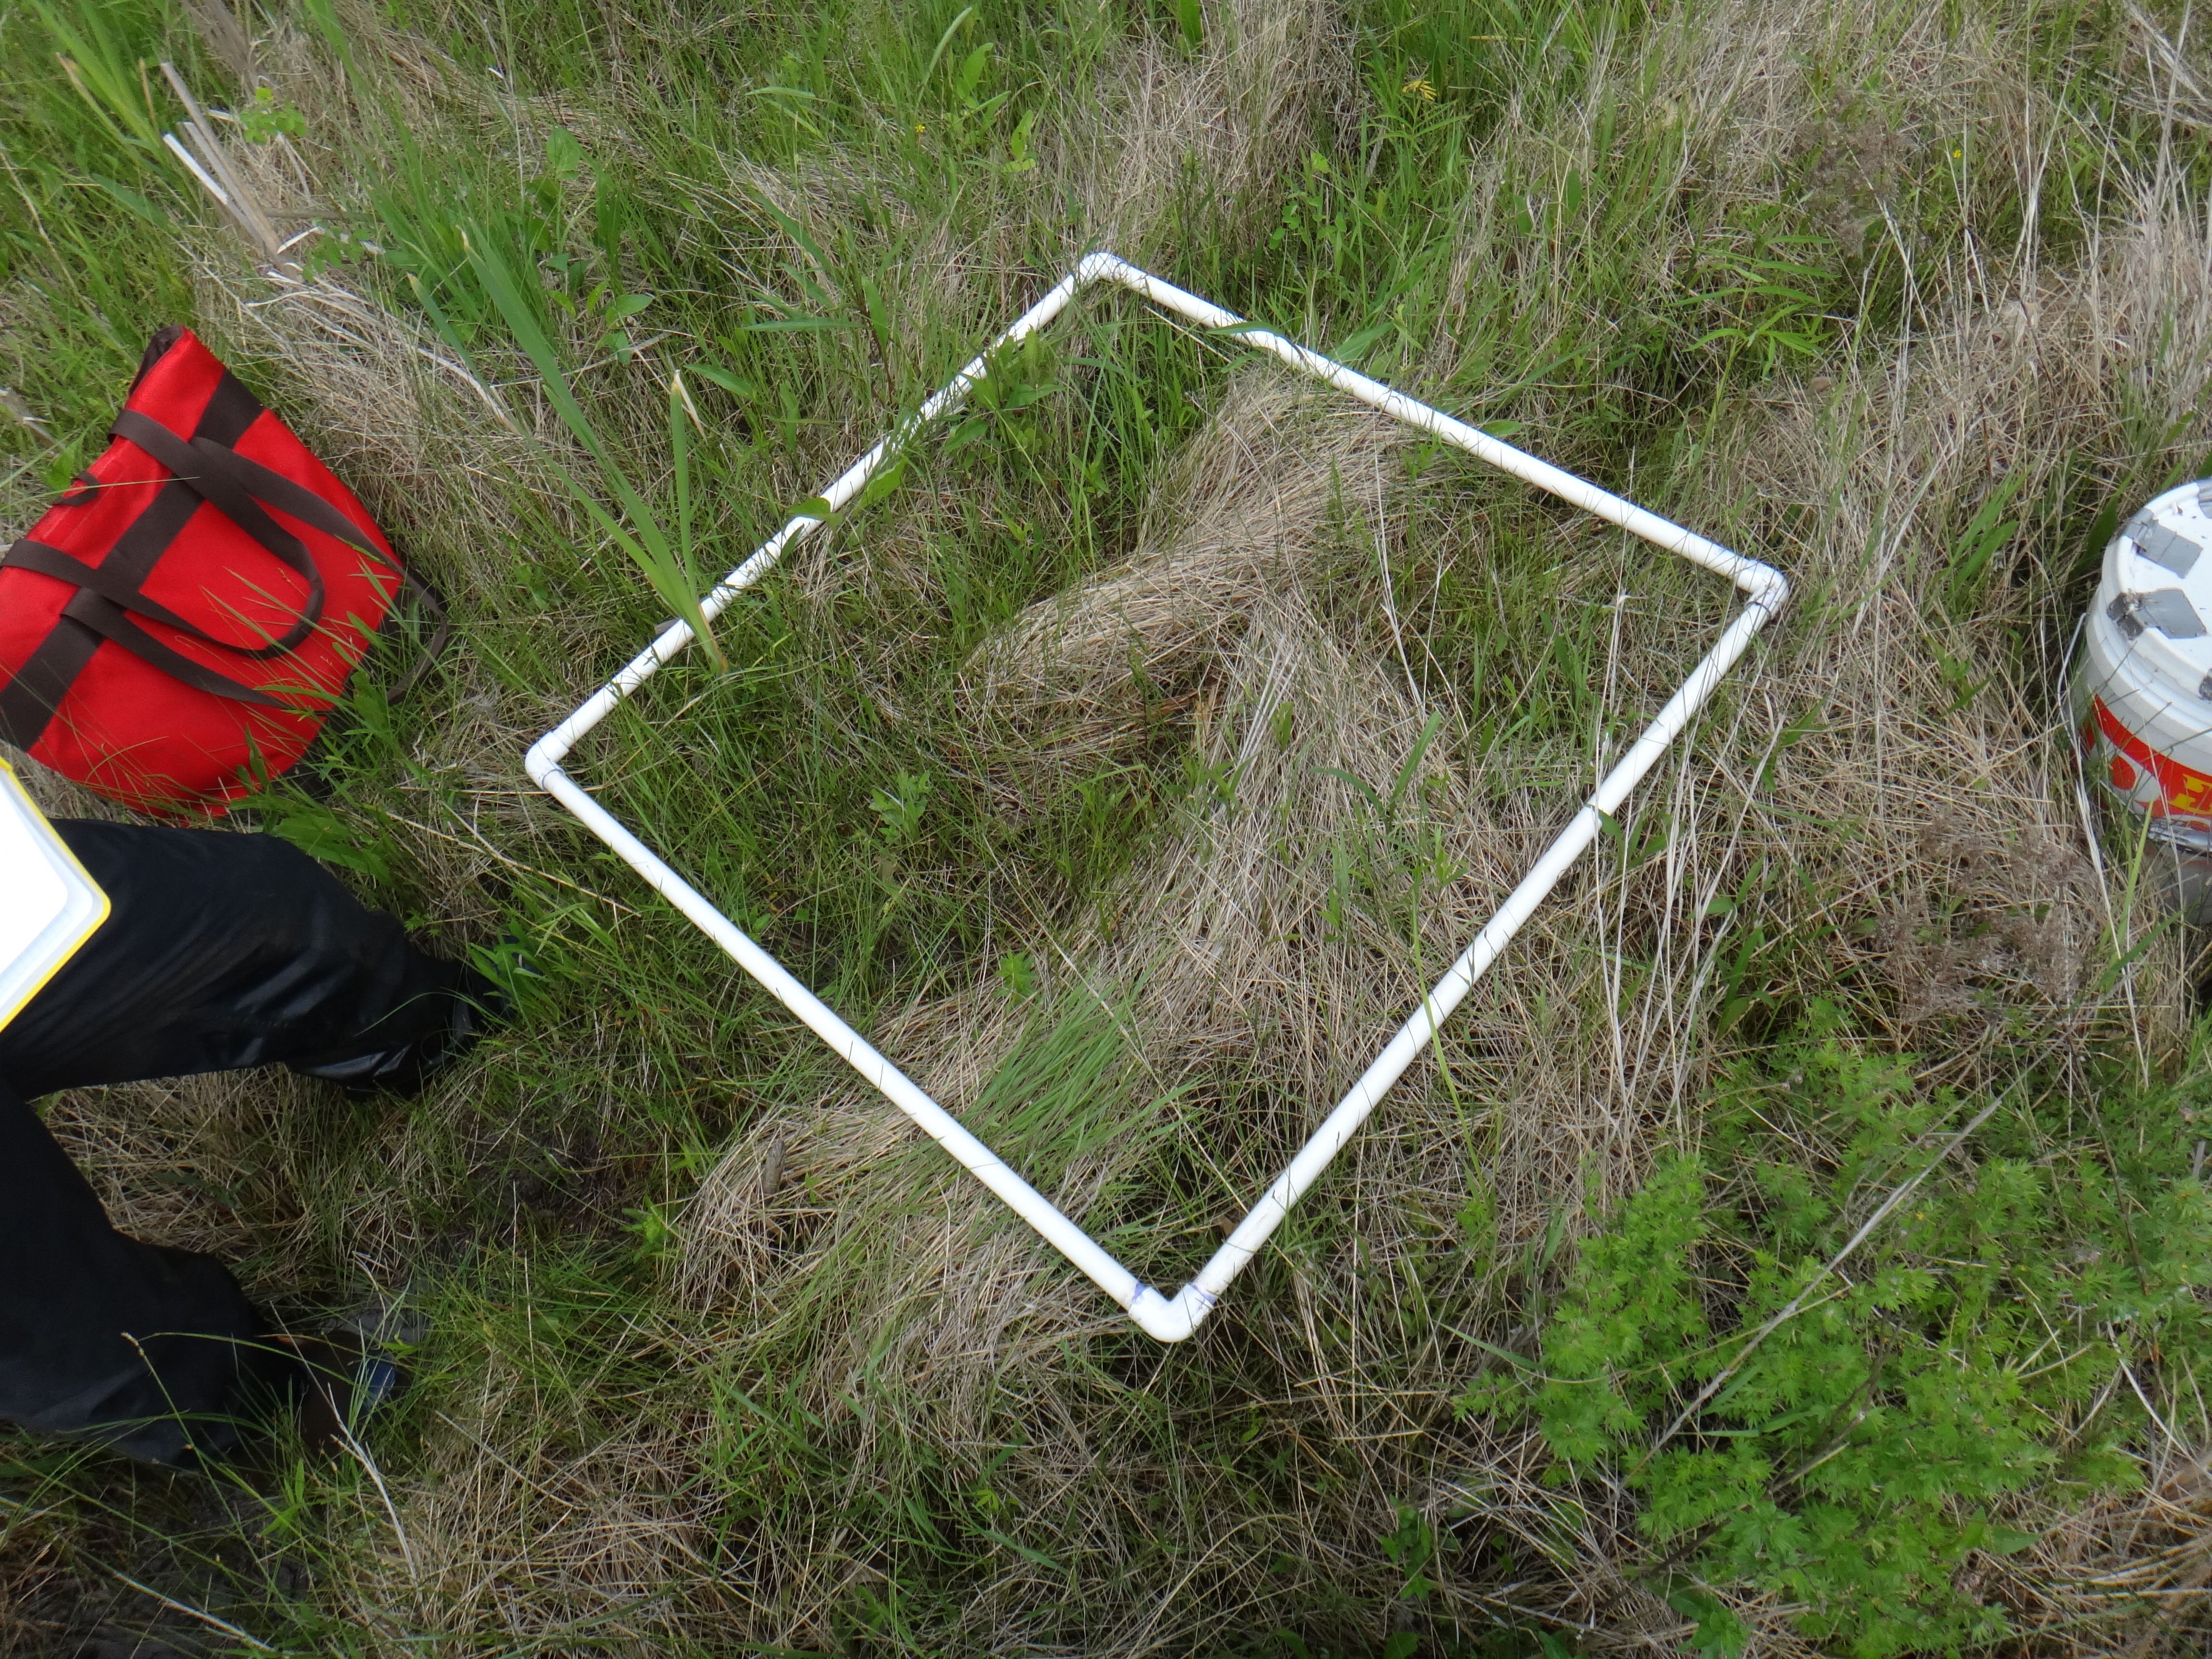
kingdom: Plantae
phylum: Tracheophyta
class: Liliopsida
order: Poales
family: Cyperaceae
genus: Eleocharis
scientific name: Eleocharis intermedia
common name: Intermediate spikerush
